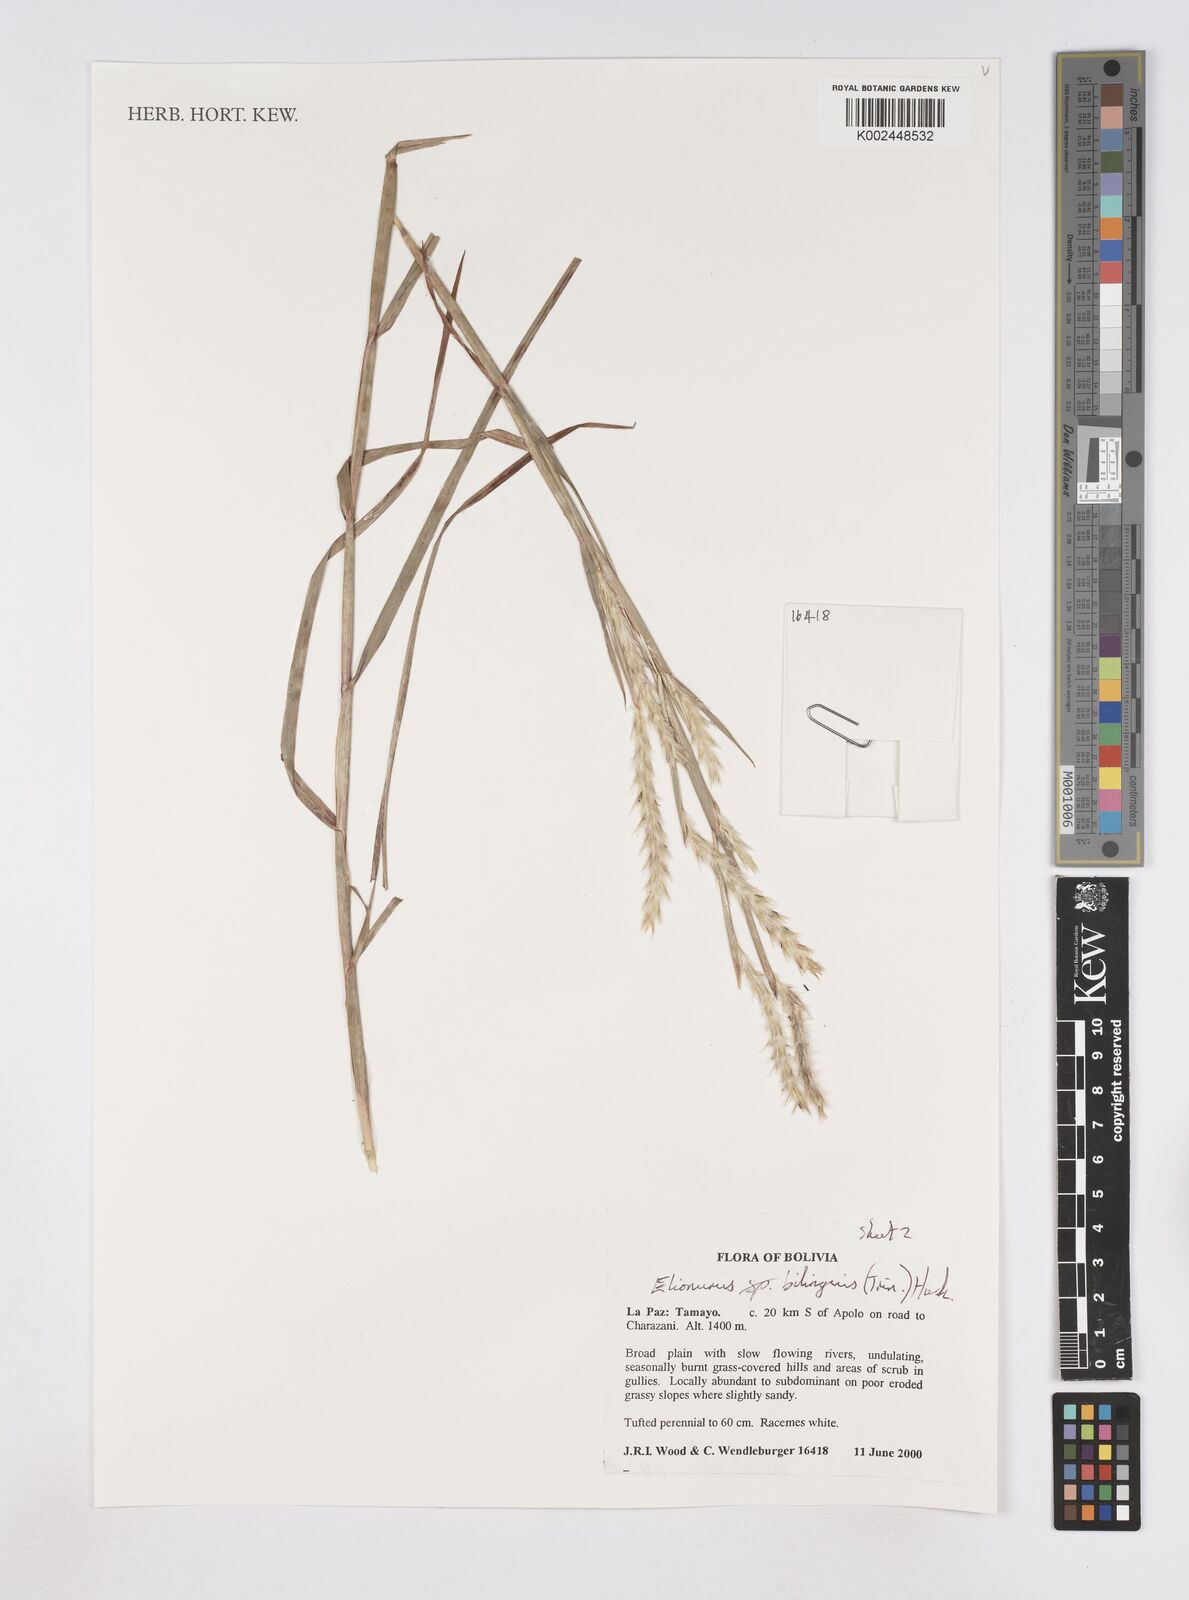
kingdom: Plantae
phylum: Tracheophyta
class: Liliopsida
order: Poales
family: Poaceae
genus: Elionurus
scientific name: Elionurus bilinguis
